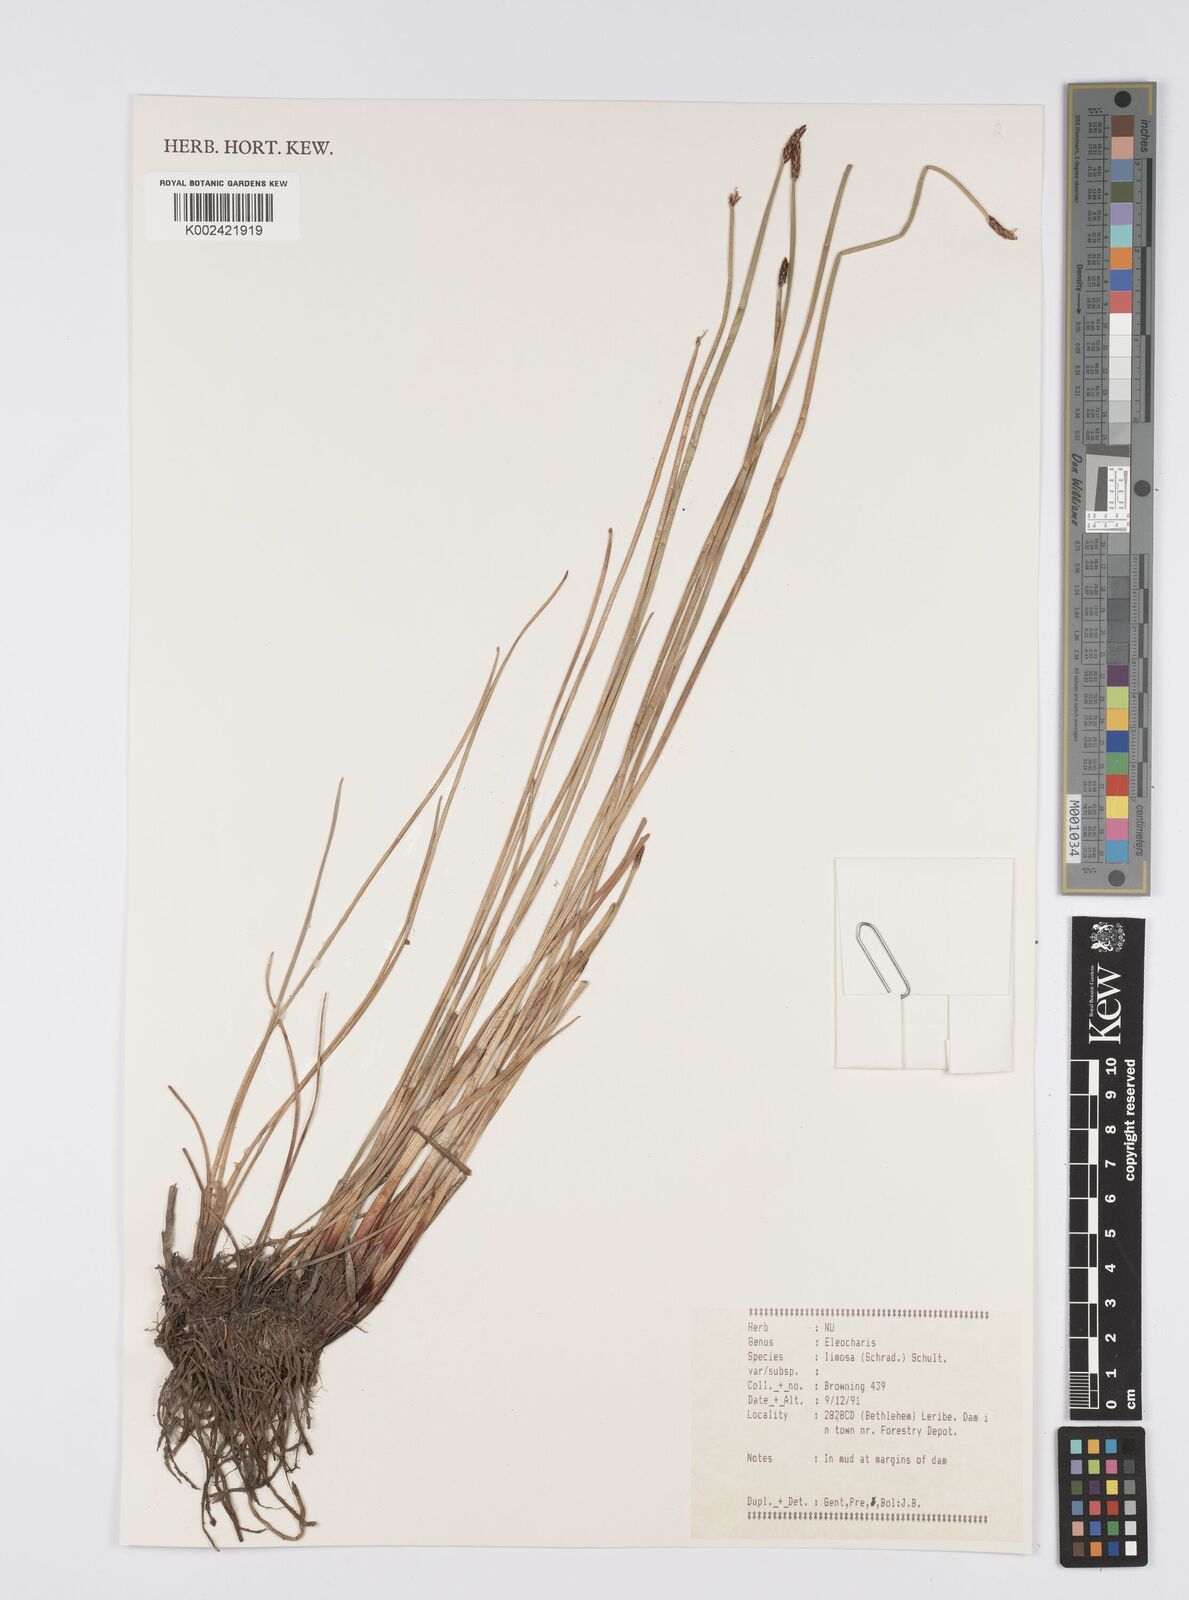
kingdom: Plantae
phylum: Tracheophyta
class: Liliopsida
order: Poales
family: Cyperaceae
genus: Eleocharis
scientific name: Eleocharis limosa
